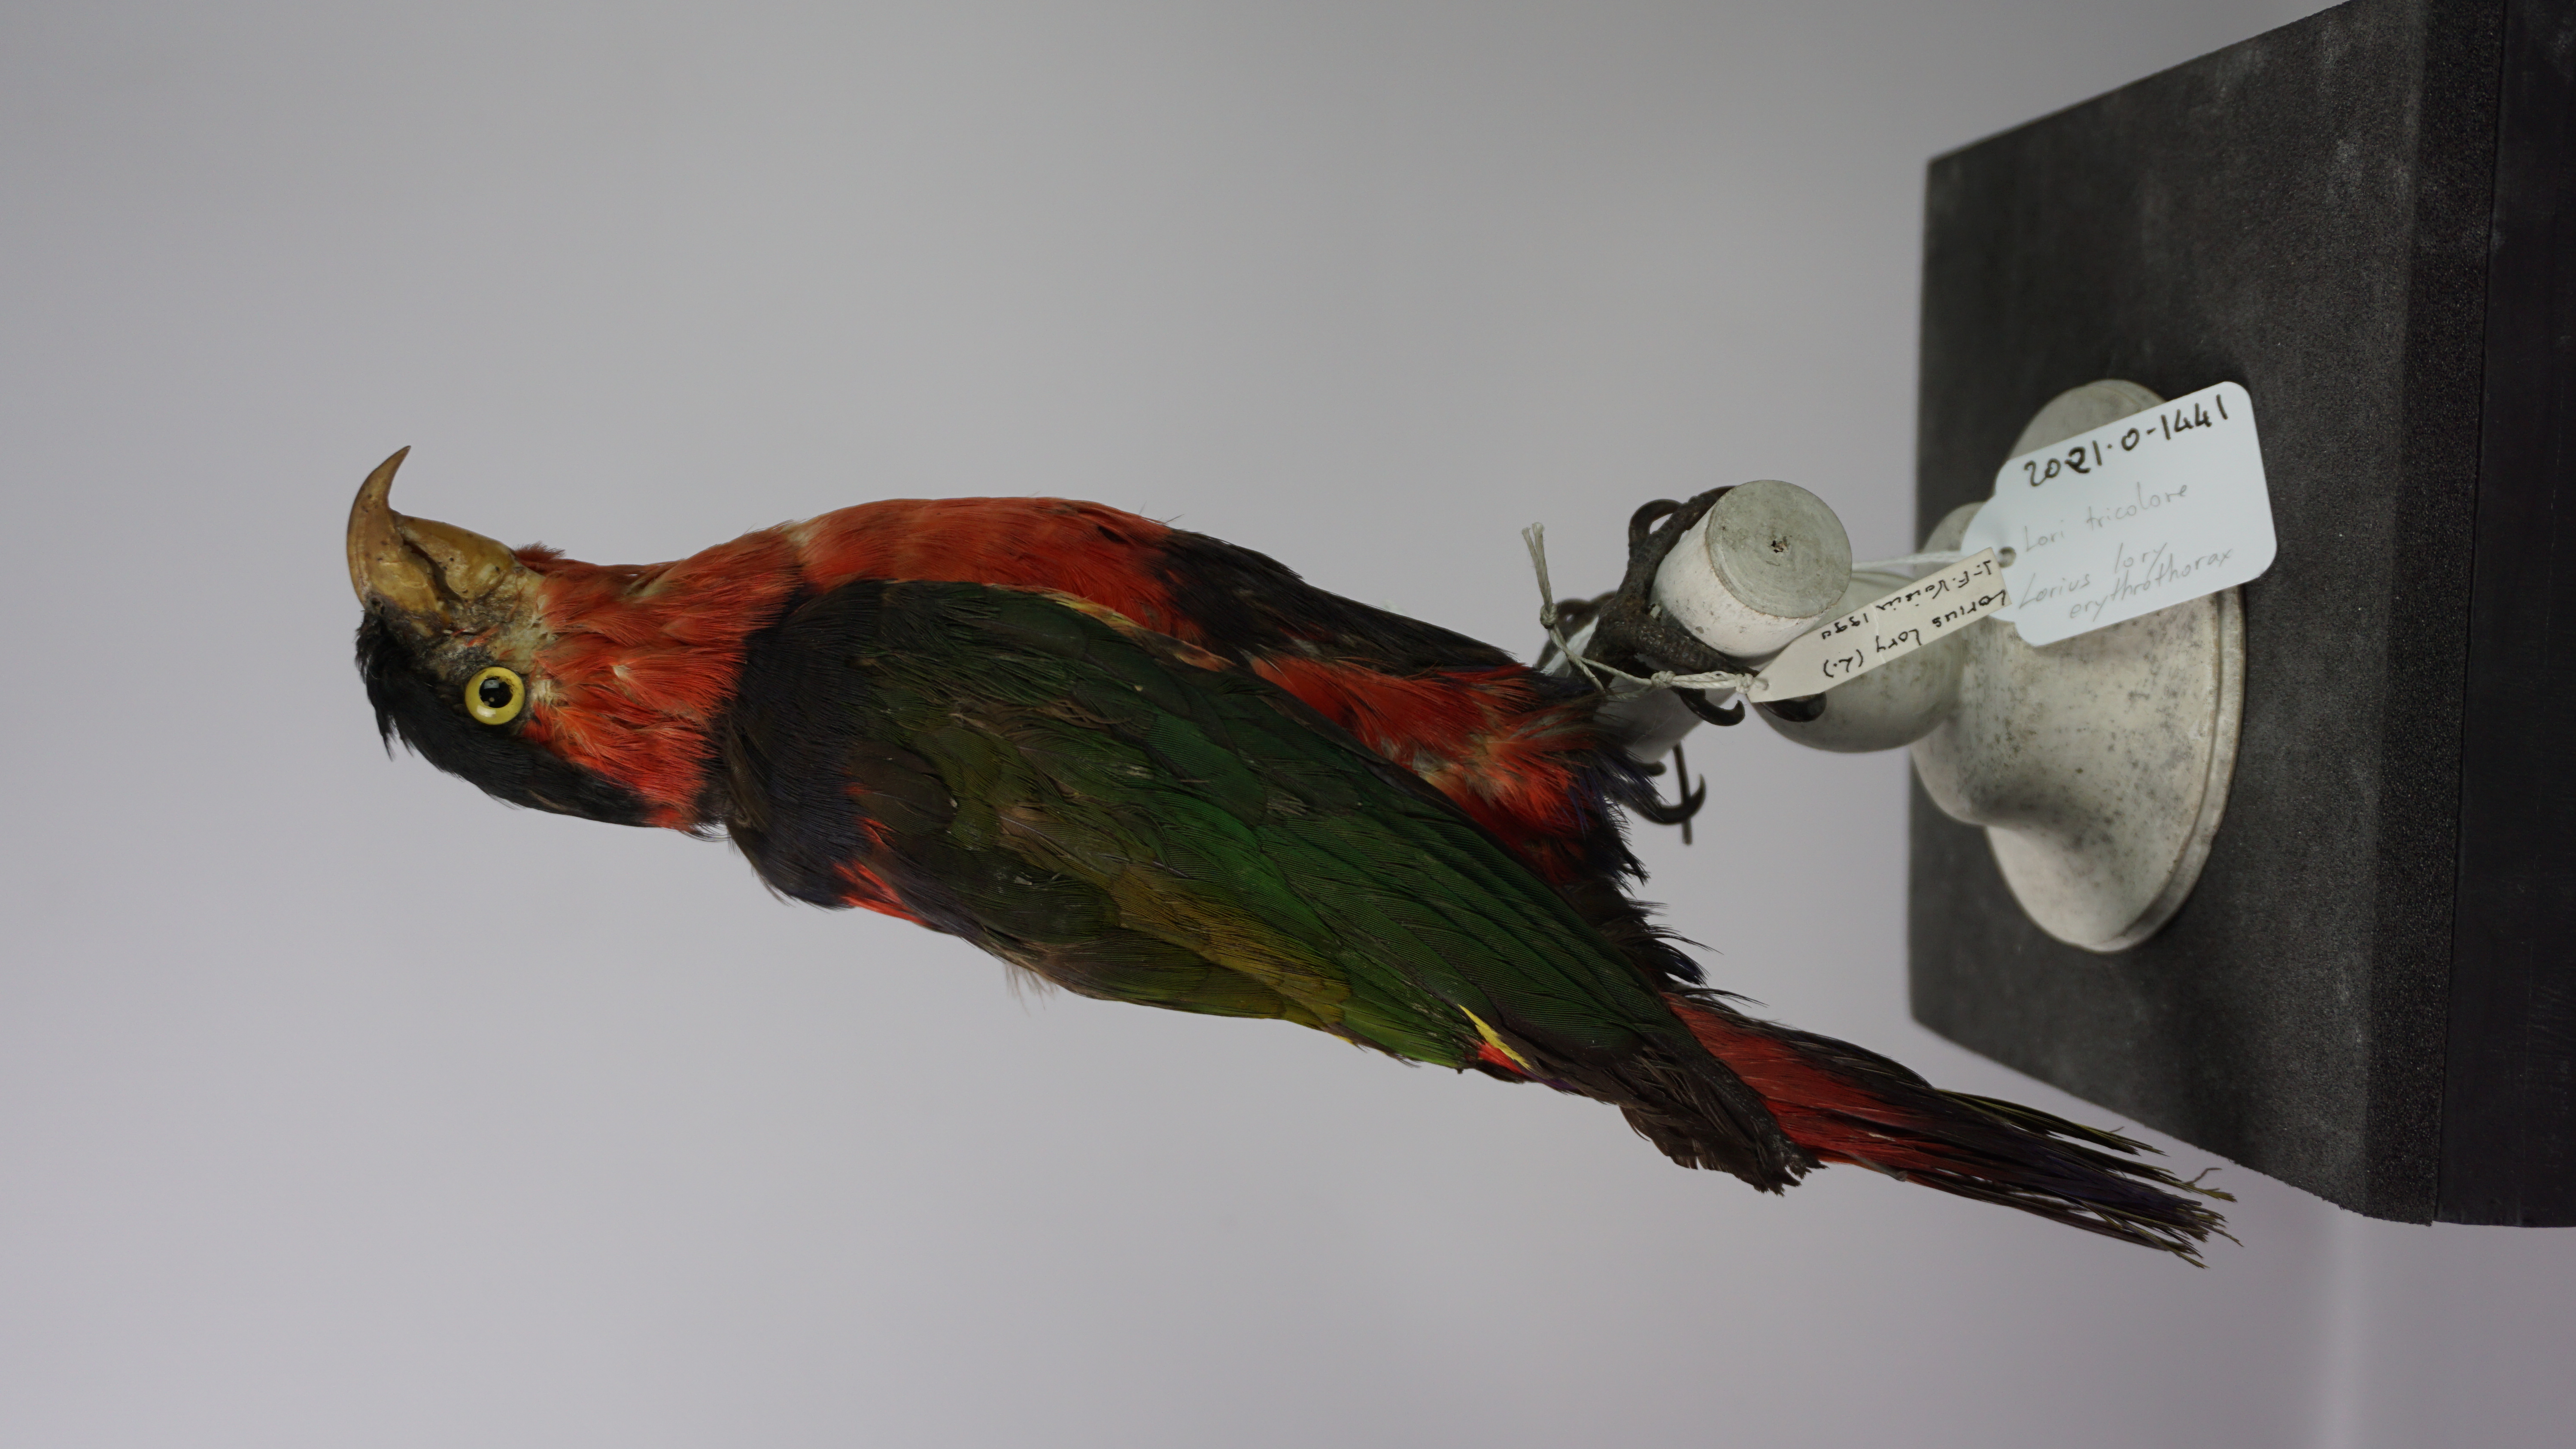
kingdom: Animalia
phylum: Chordata
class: Aves
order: Psittaciformes
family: Psittacidae
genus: Lorius
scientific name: Lorius lory
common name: Black-capped lory
